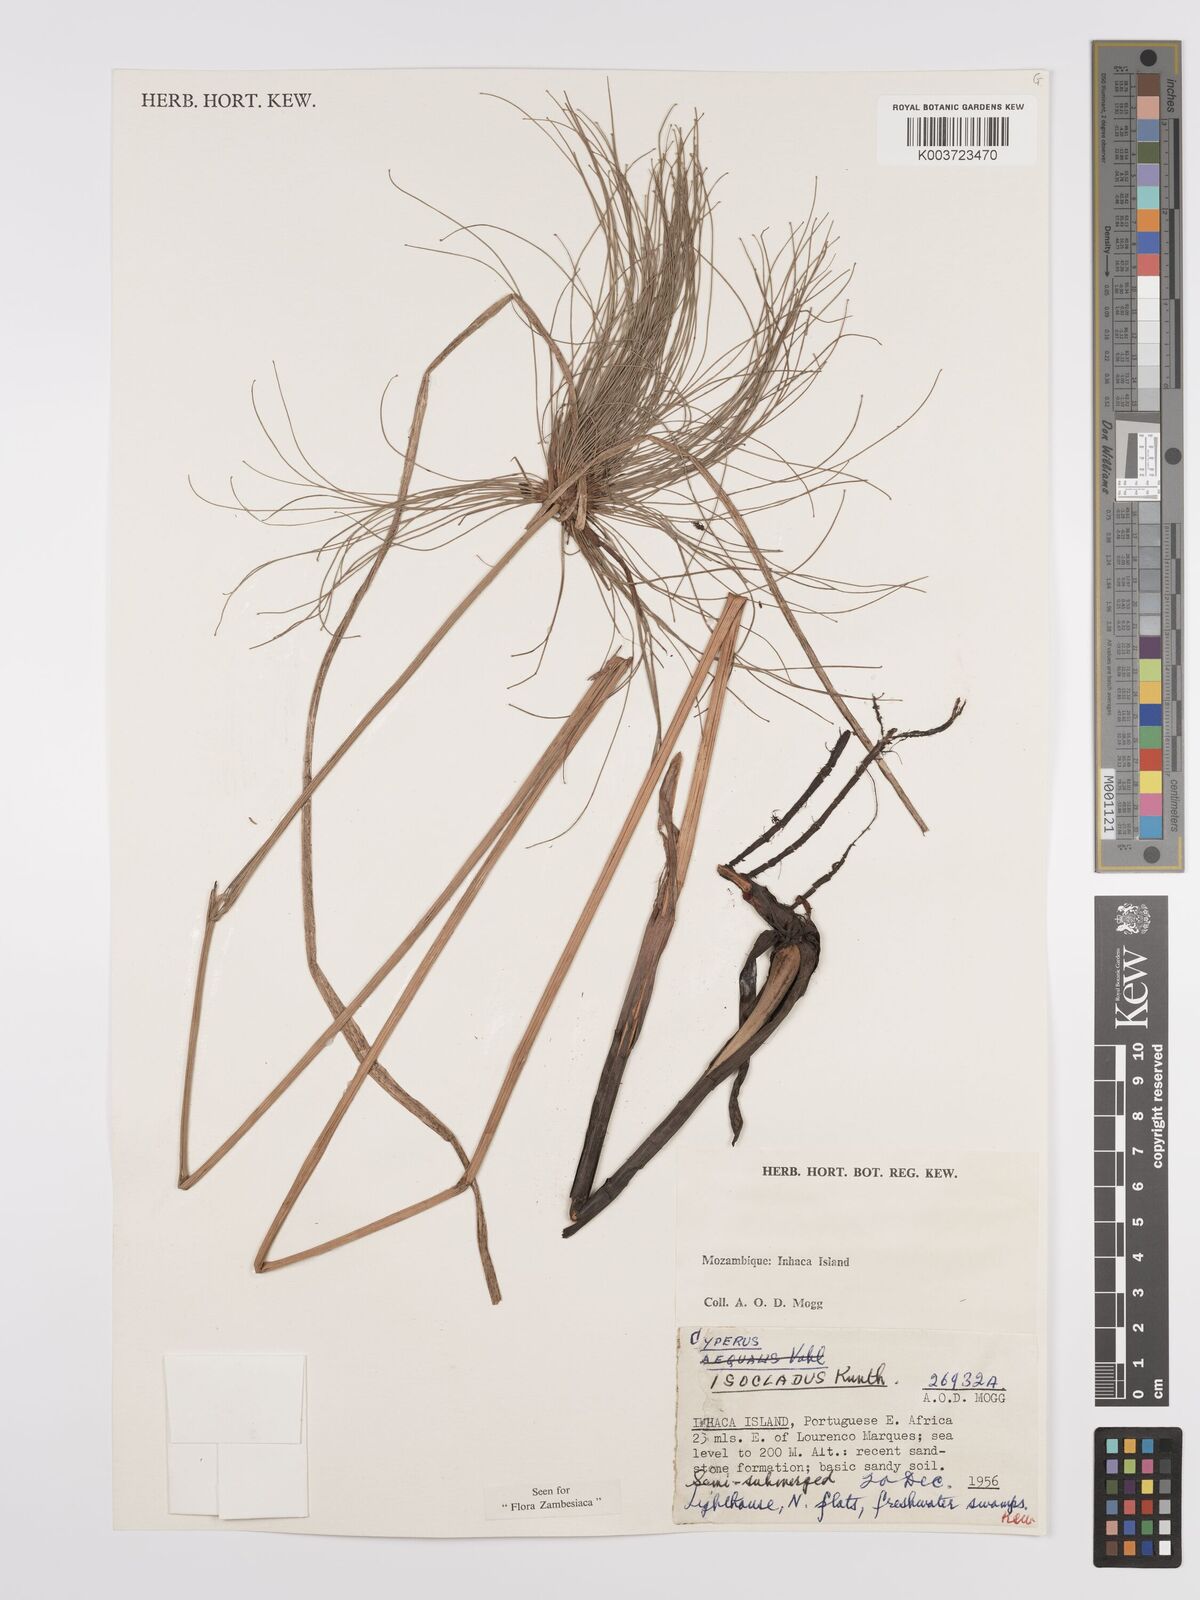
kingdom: Plantae
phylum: Tracheophyta
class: Liliopsida
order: Poales
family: Cyperaceae
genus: Cyperus
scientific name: Cyperus prolifer
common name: Miniature flatsedge
